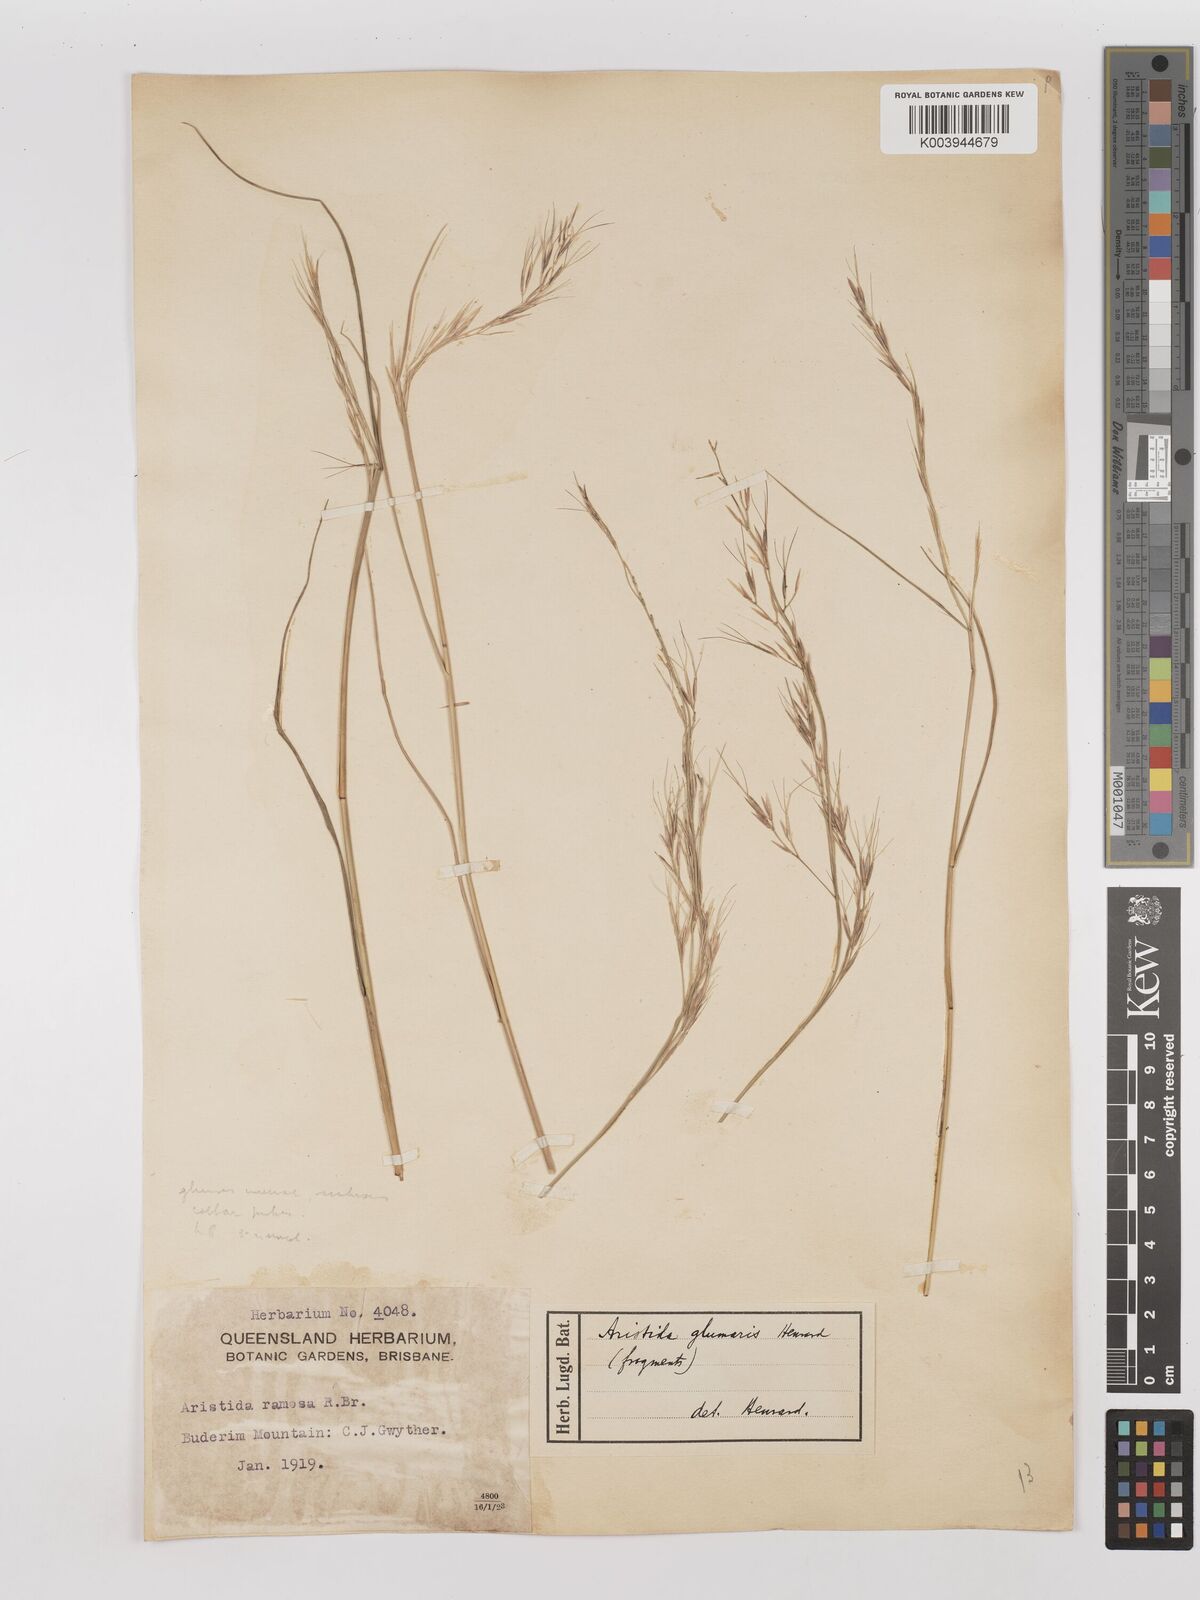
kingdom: Plantae
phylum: Tracheophyta
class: Liliopsida
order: Poales
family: Poaceae
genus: Aristida
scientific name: Aristida calycina
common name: Dark wire grass
